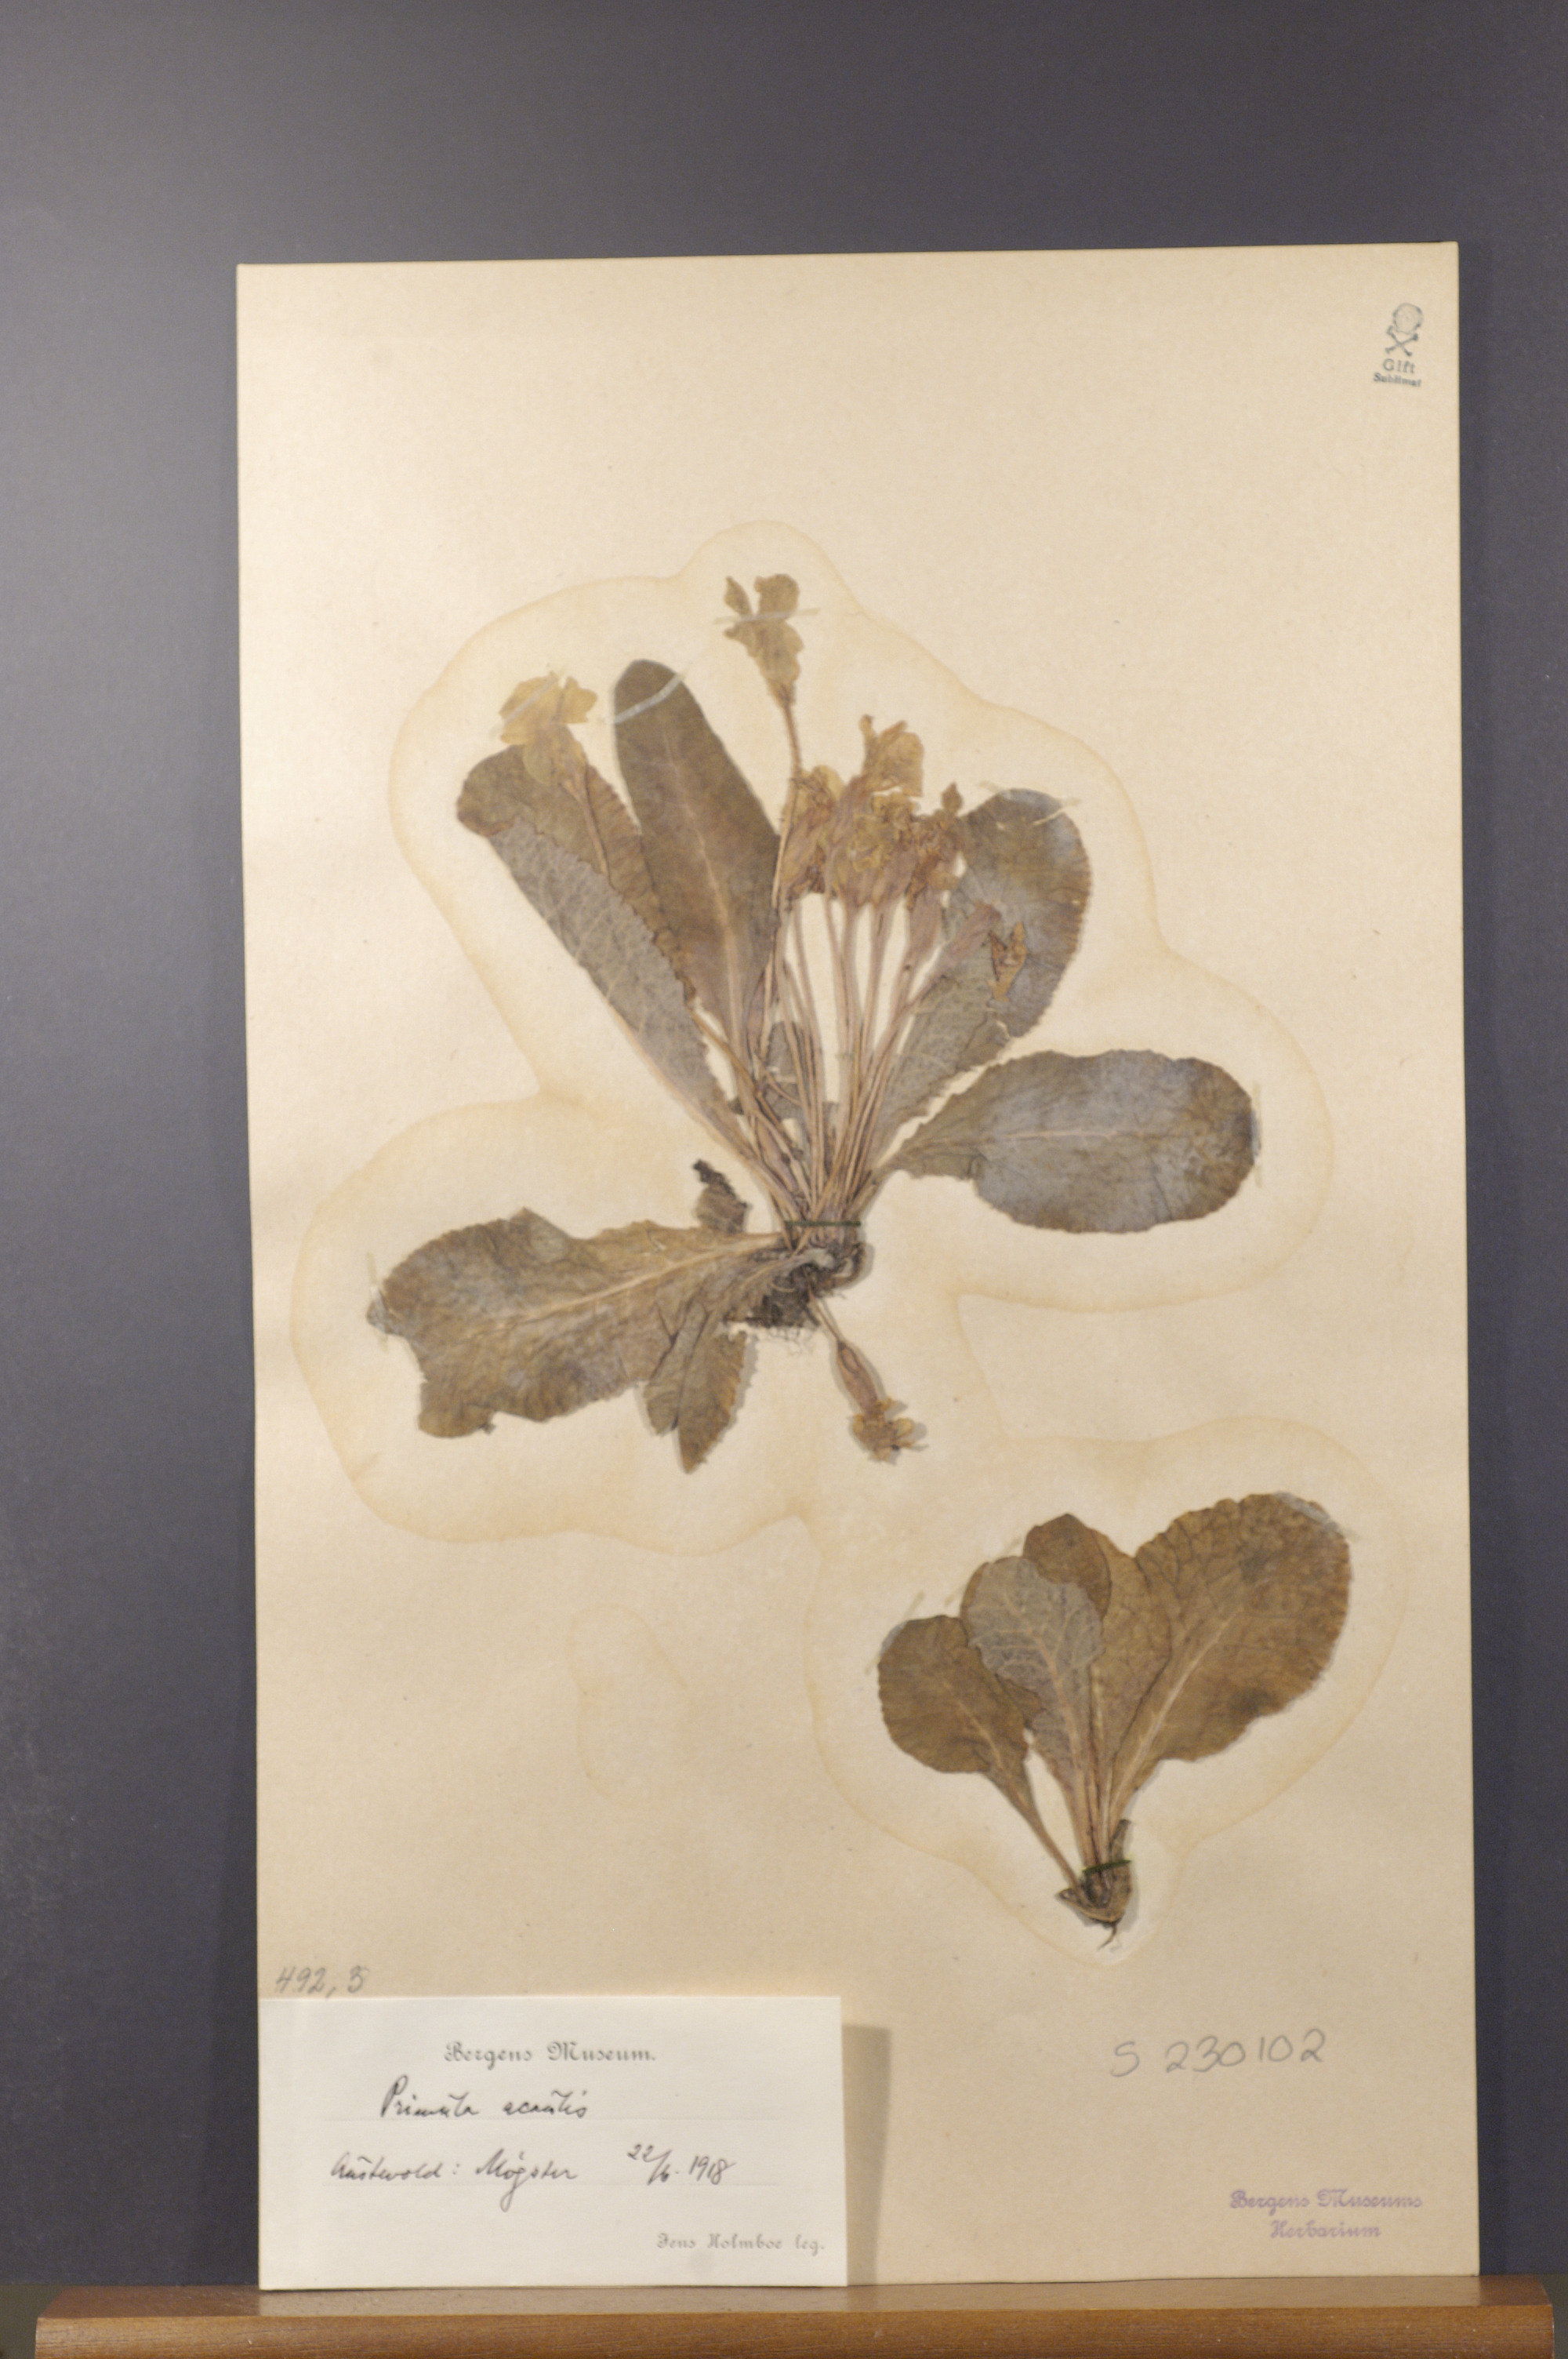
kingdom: Plantae
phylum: Tracheophyta
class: Magnoliopsida
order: Ericales
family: Primulaceae
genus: Primula
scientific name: Primula vulgaris
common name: Primrose
